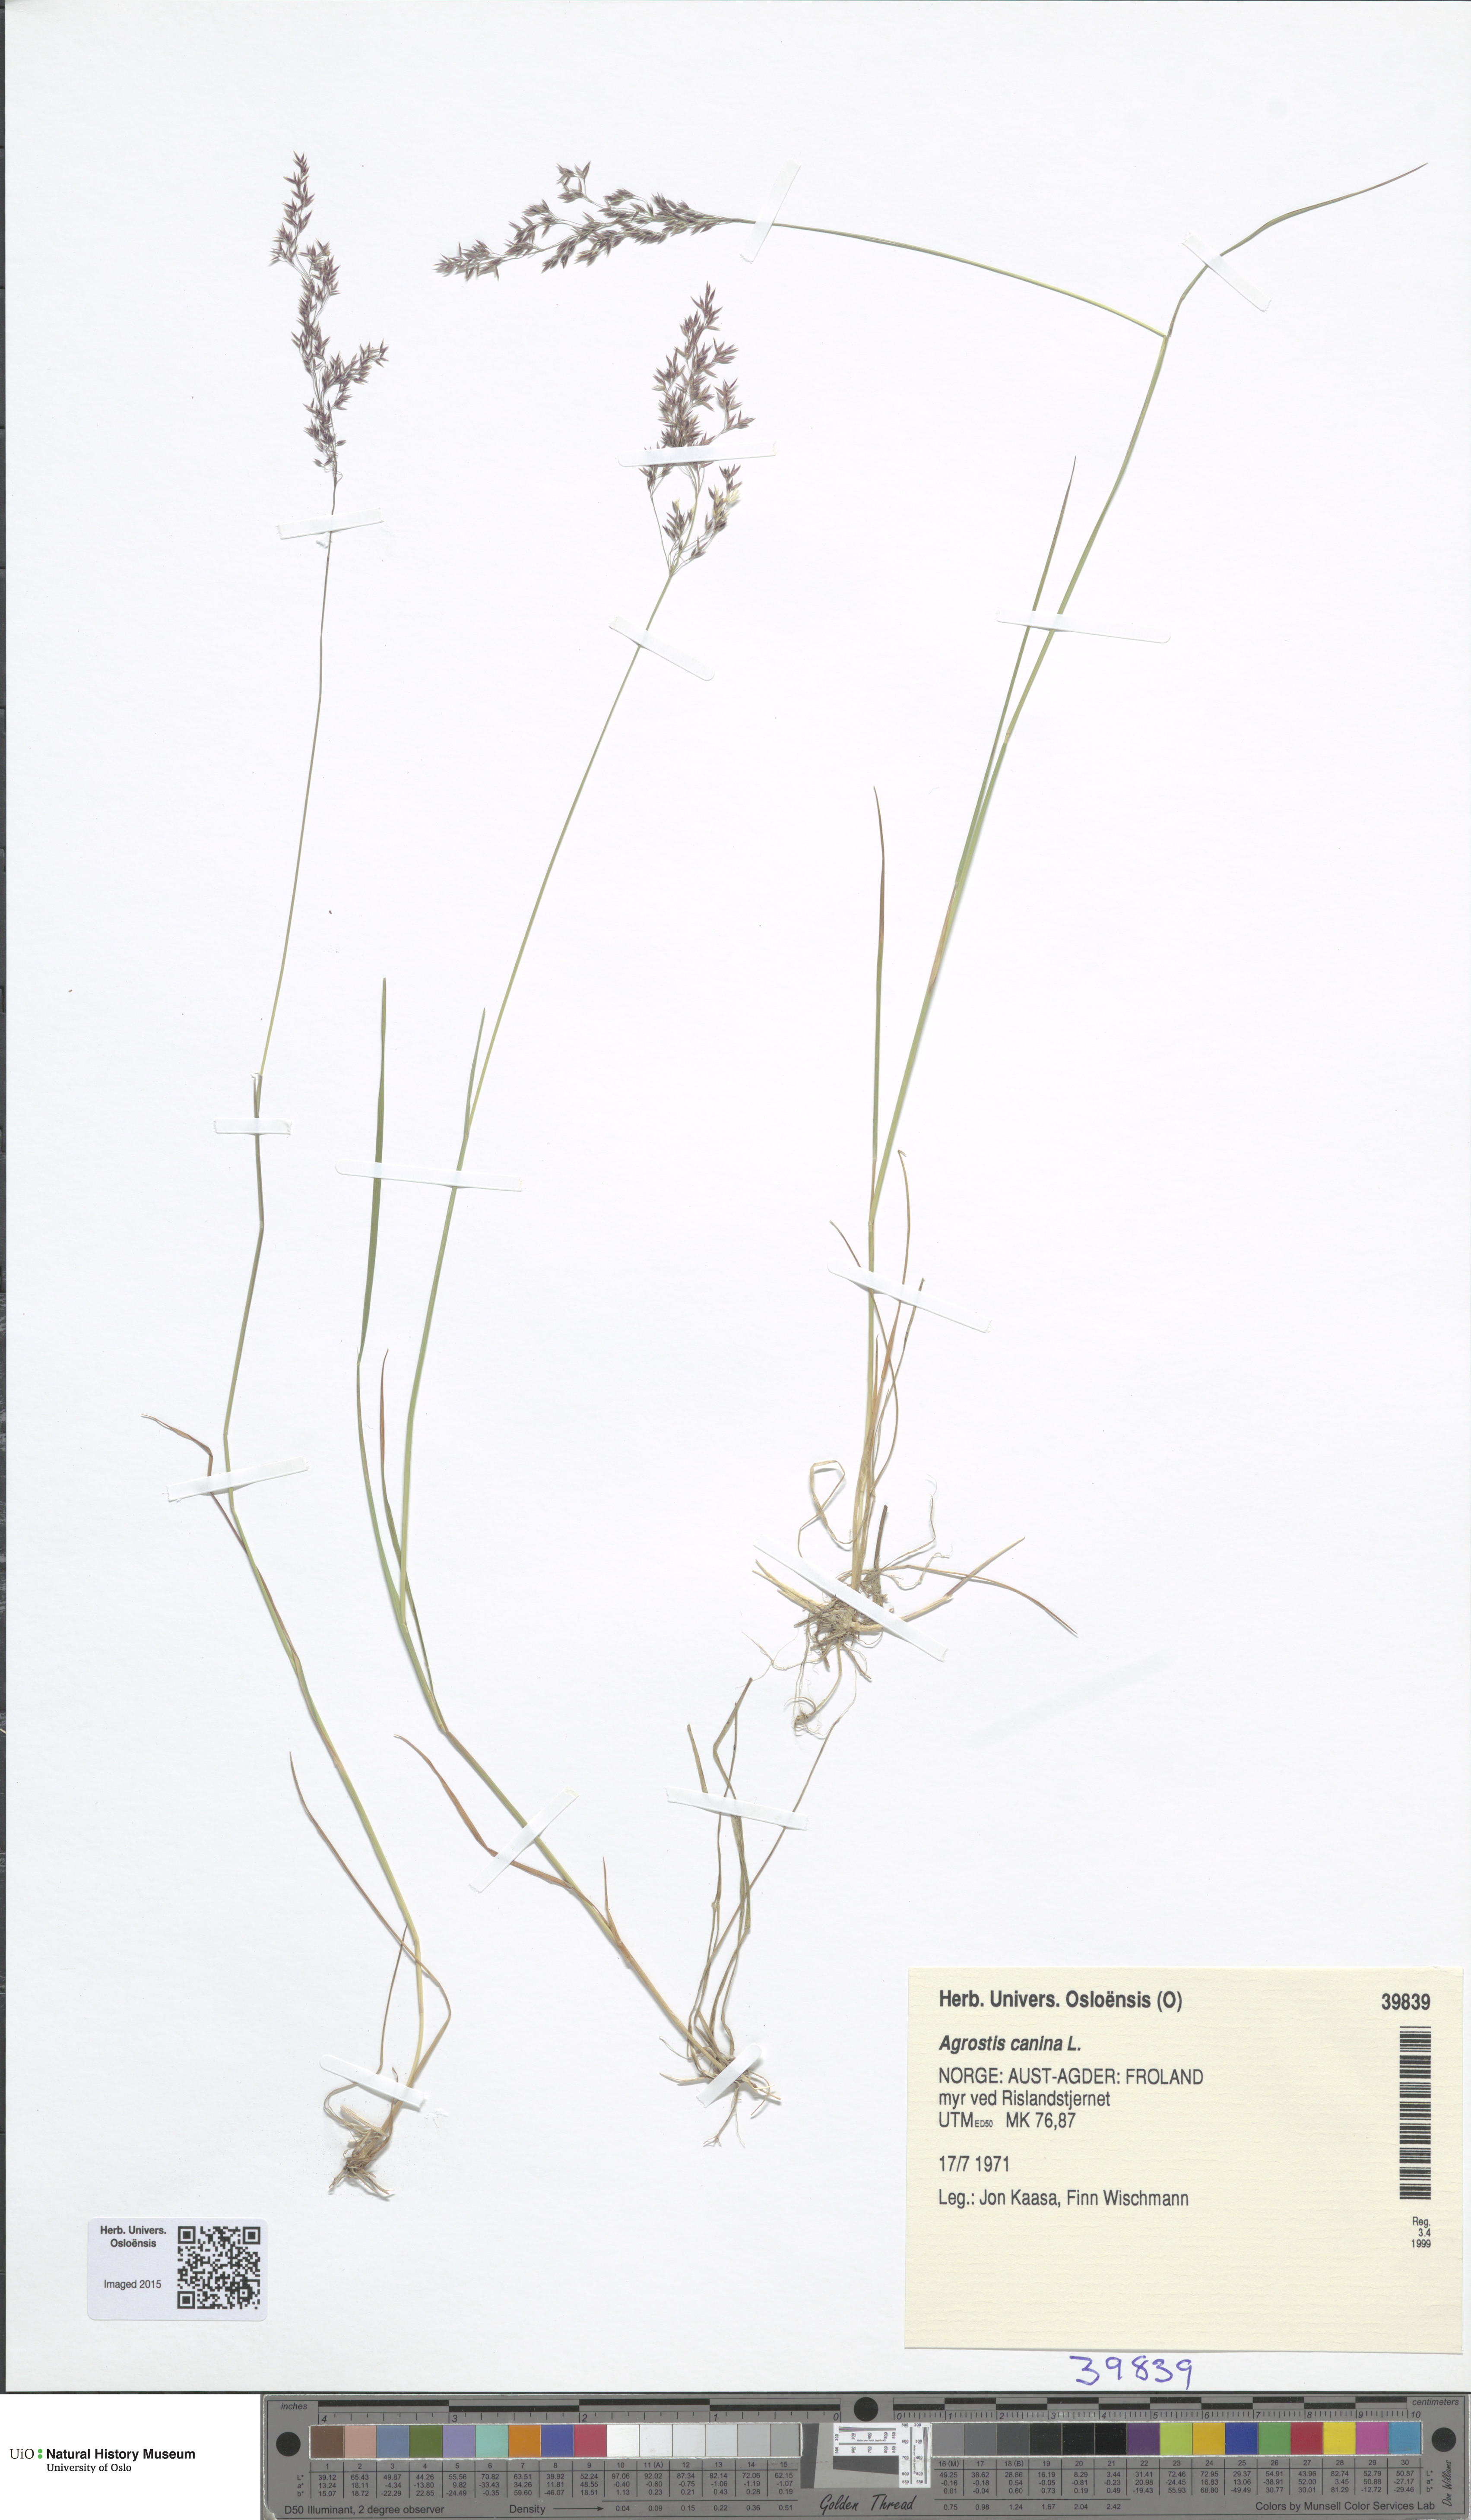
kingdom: Plantae
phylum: Tracheophyta
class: Liliopsida
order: Poales
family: Poaceae
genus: Agrostis
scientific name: Agrostis canina
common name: Velvet bent
